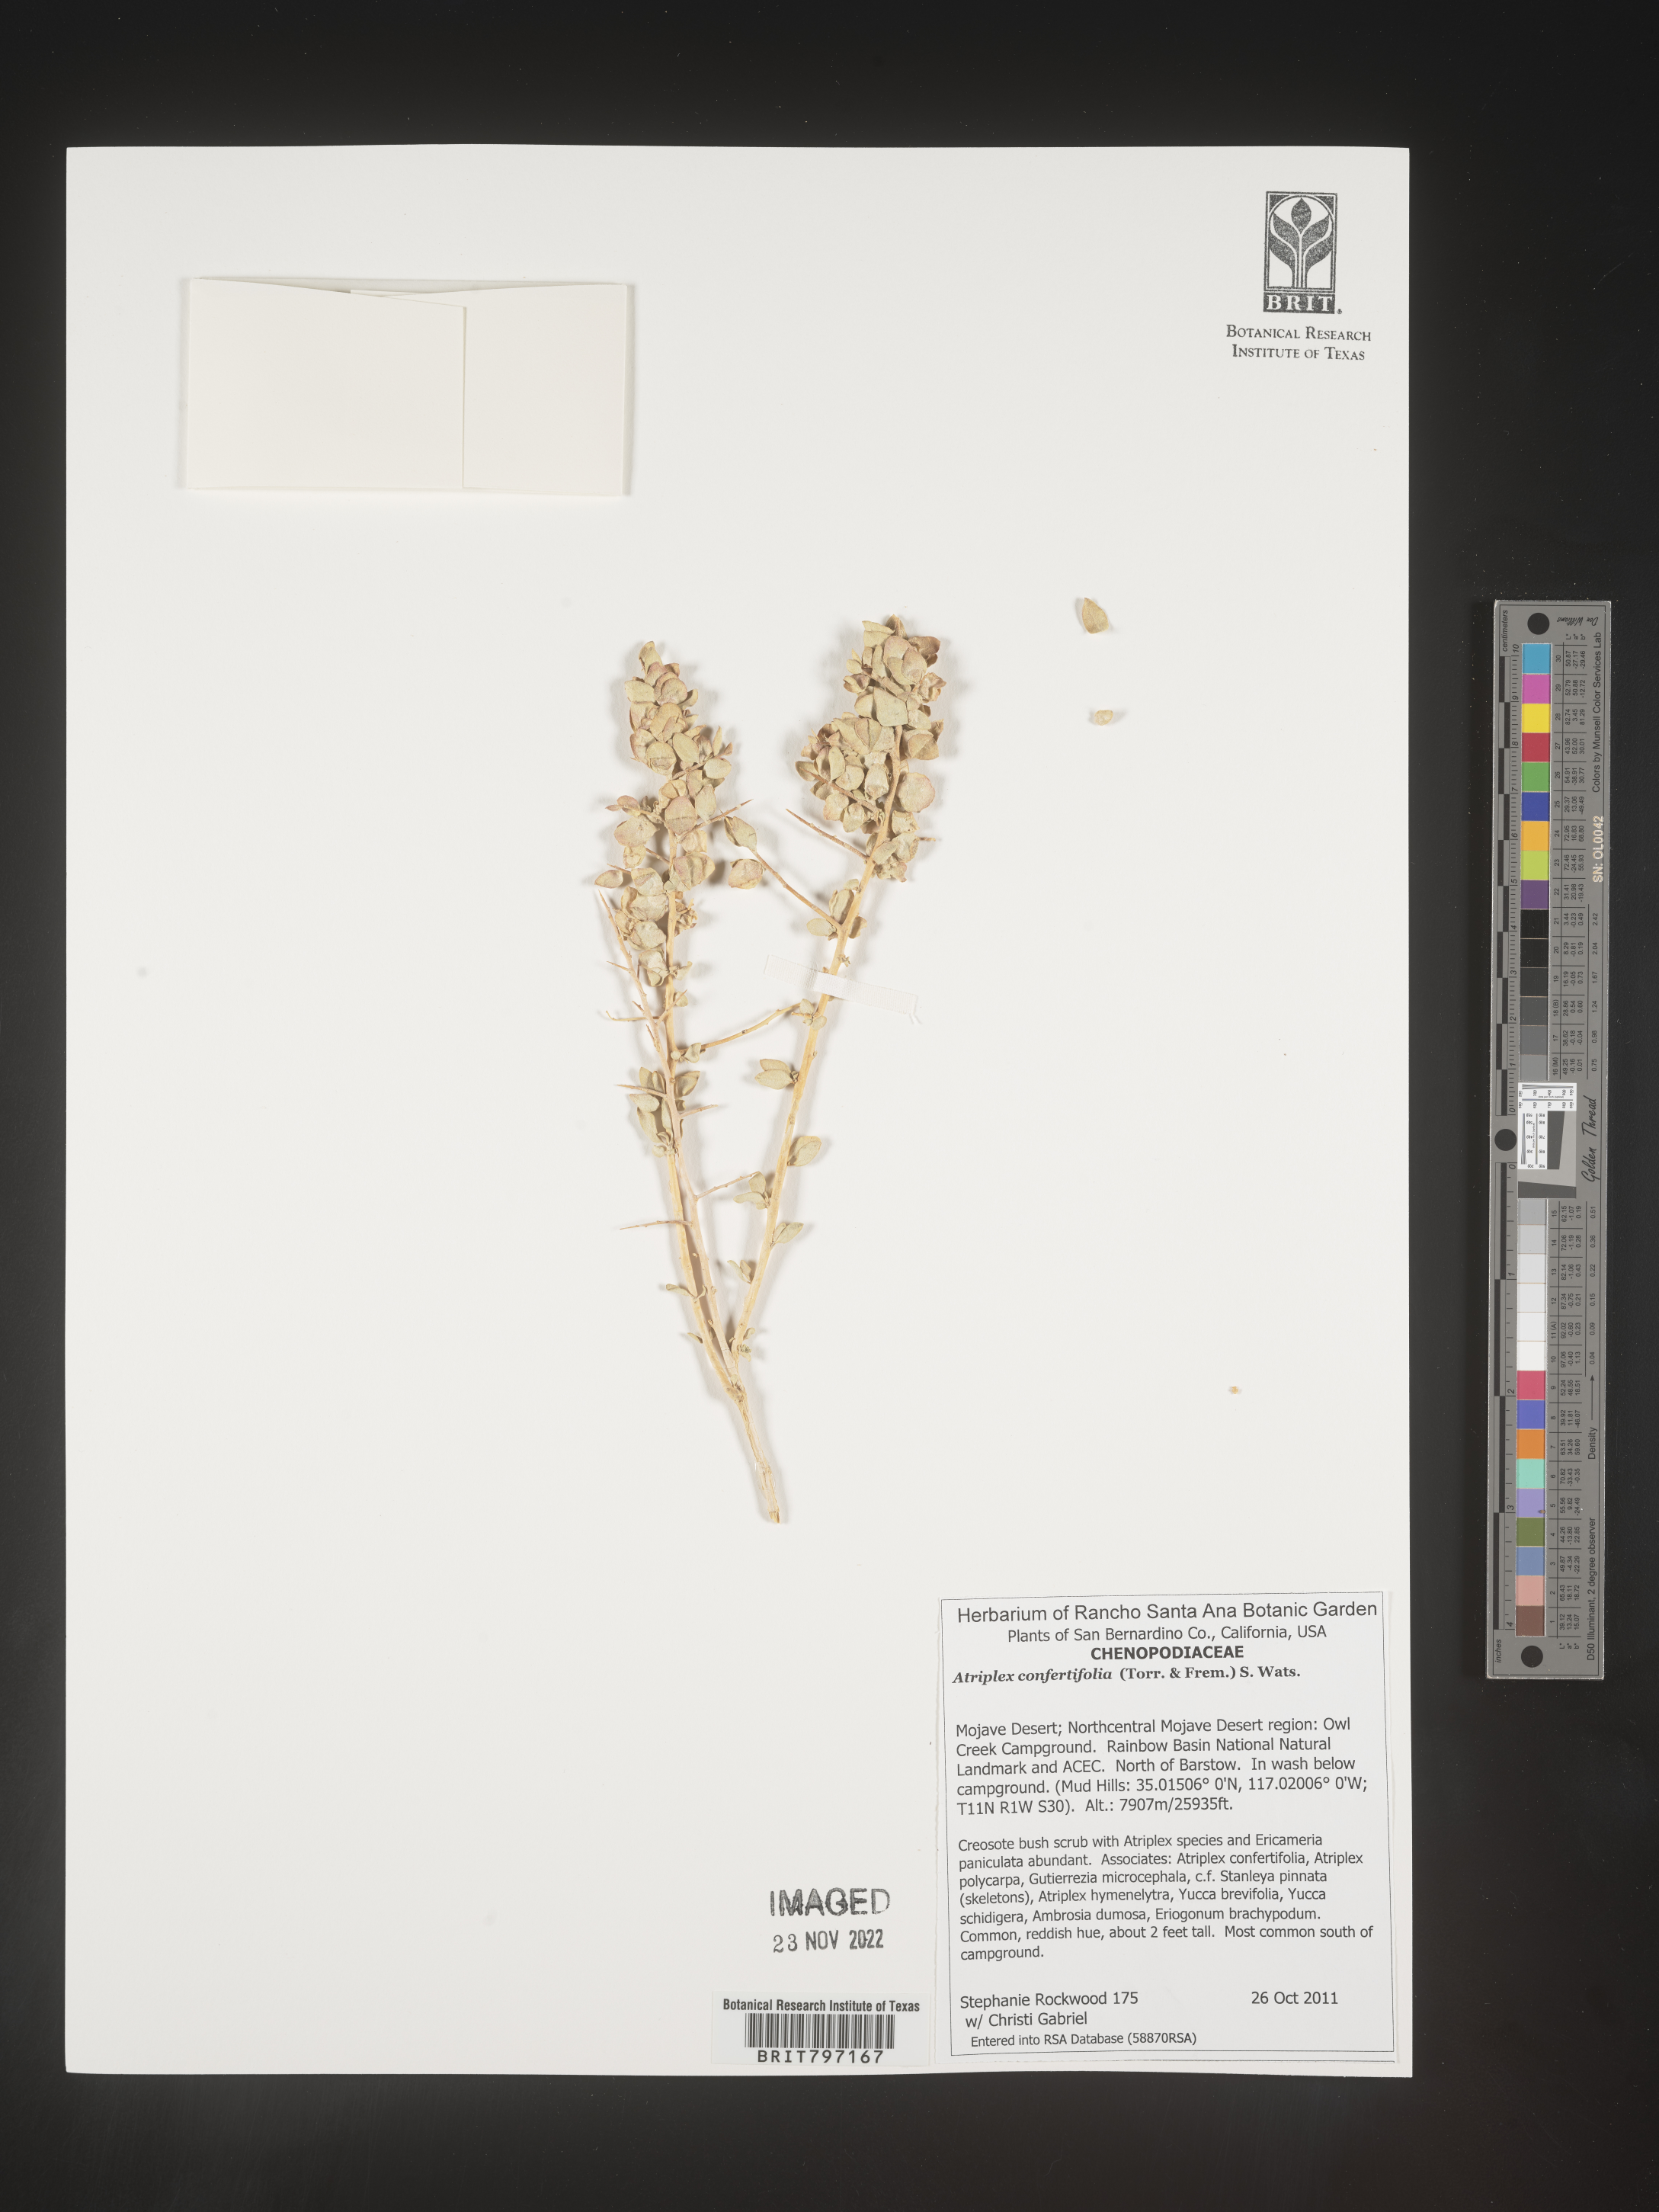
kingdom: Plantae
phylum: Tracheophyta
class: Magnoliopsida
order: Caryophyllales
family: Amaranthaceae
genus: Atriplex
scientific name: Atriplex confertifolia
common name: Shadscale
